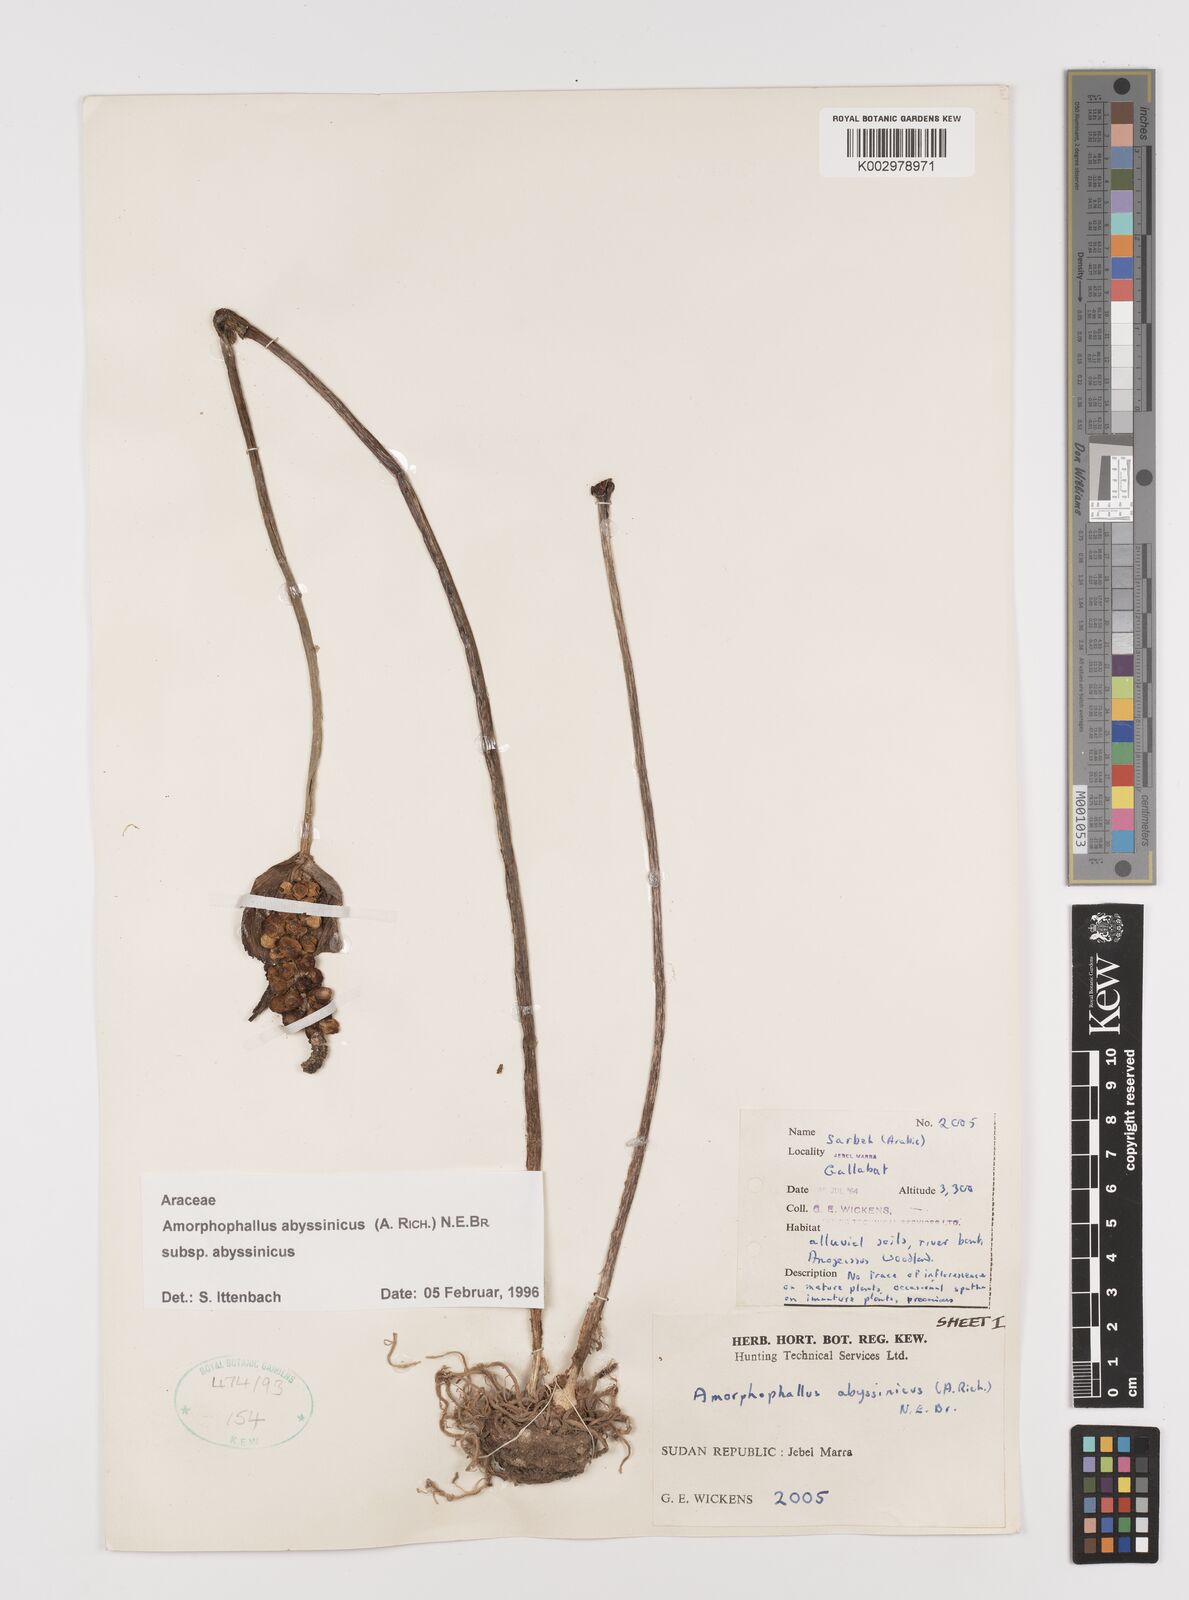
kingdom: Plantae
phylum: Tracheophyta
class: Liliopsida
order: Alismatales
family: Araceae
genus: Amorphophallus
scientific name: Amorphophallus abyssinicus
